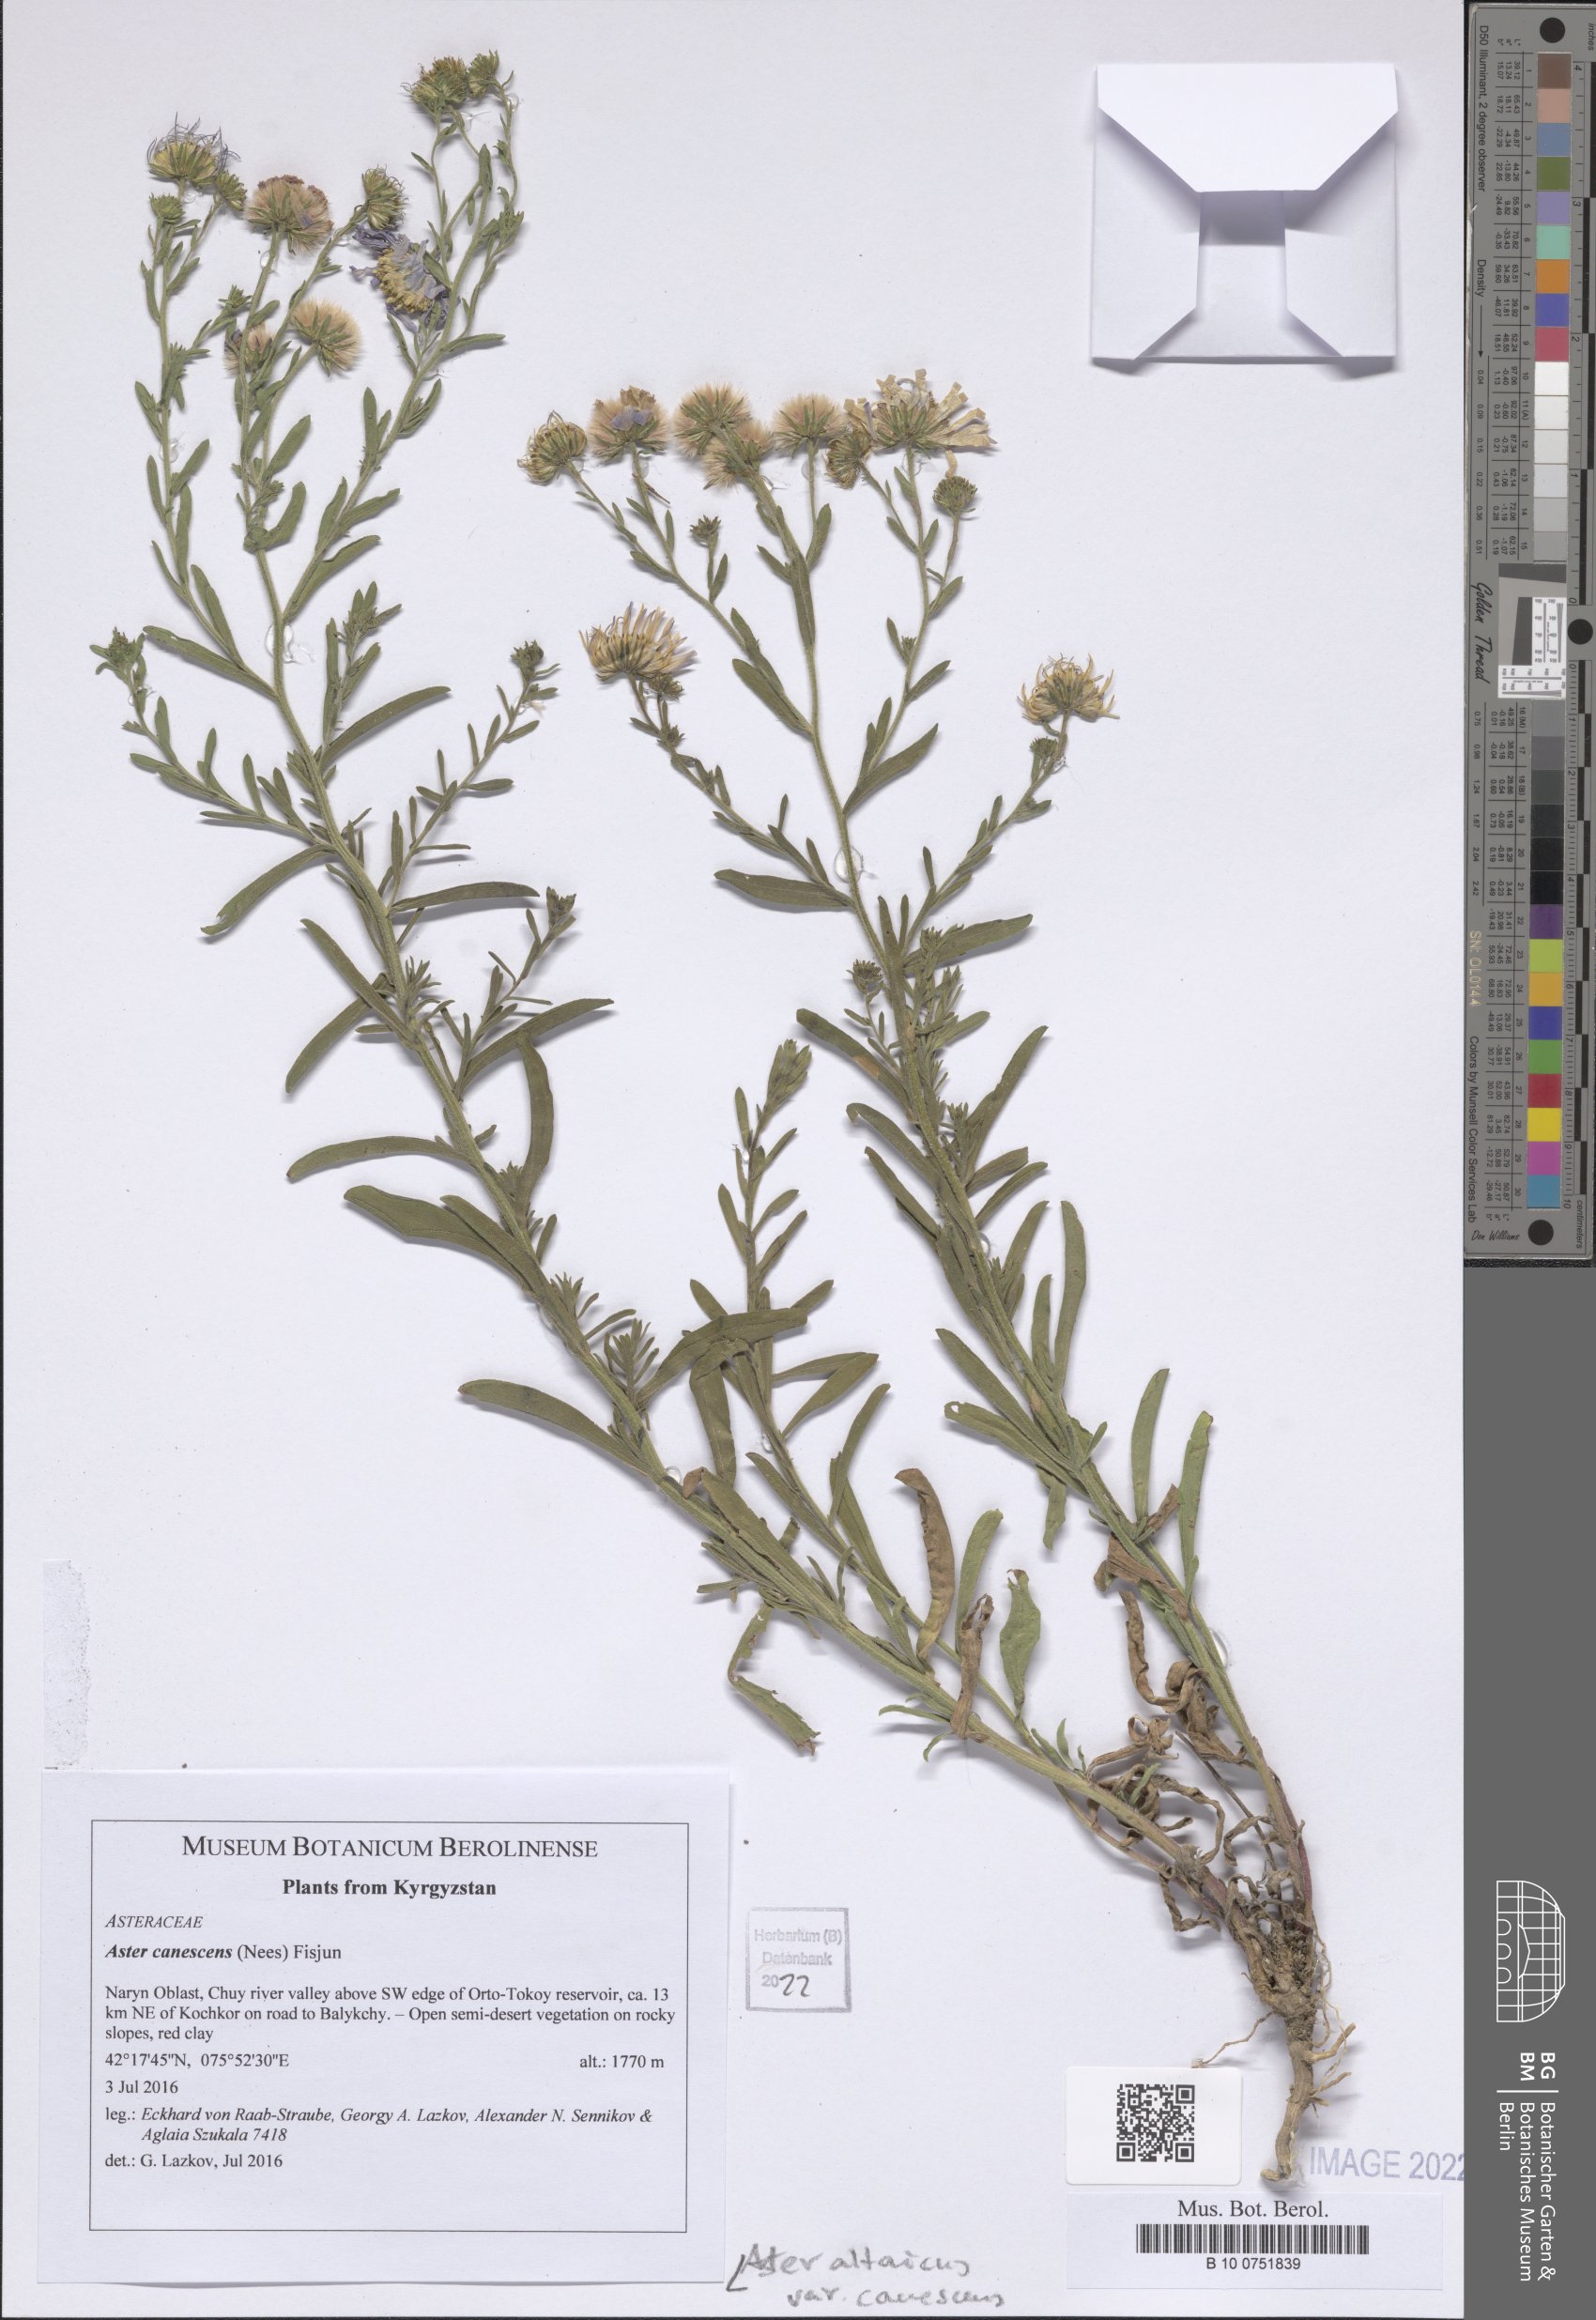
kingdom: Plantae
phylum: Tracheophyta
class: Magnoliopsida
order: Asterales
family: Asteraceae
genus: Heteropappus
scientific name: Heteropappus altaicus
